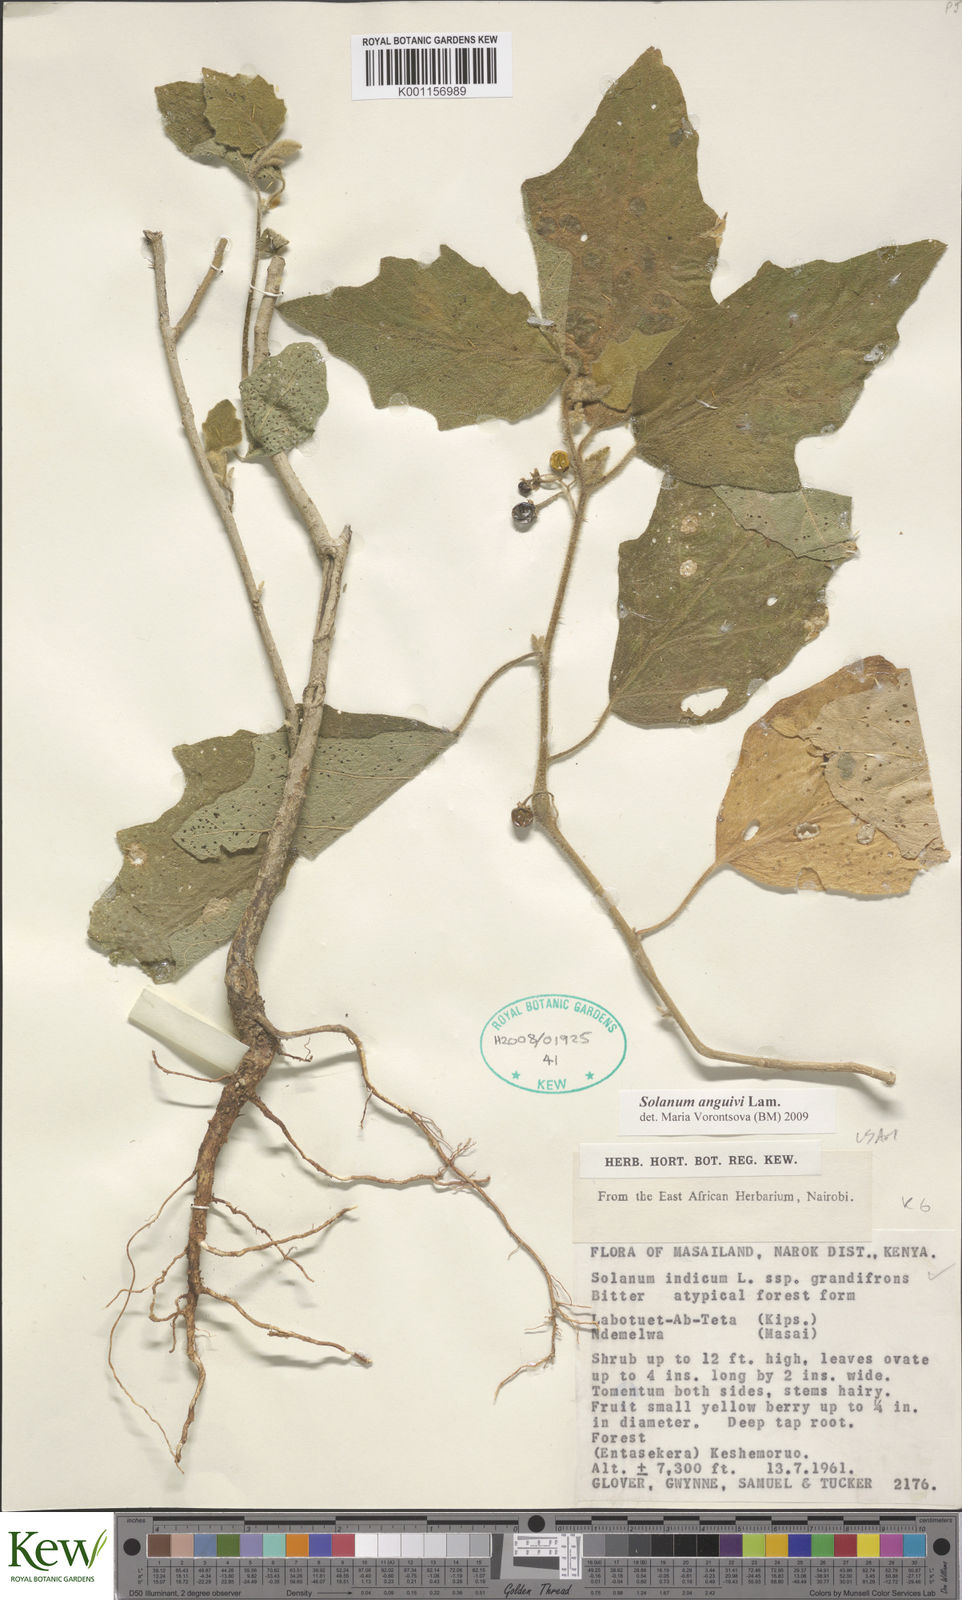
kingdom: Plantae
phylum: Tracheophyta
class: Magnoliopsida
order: Solanales
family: Solanaceae
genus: Solanum
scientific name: Solanum anguivi
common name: Forest bitterberry
